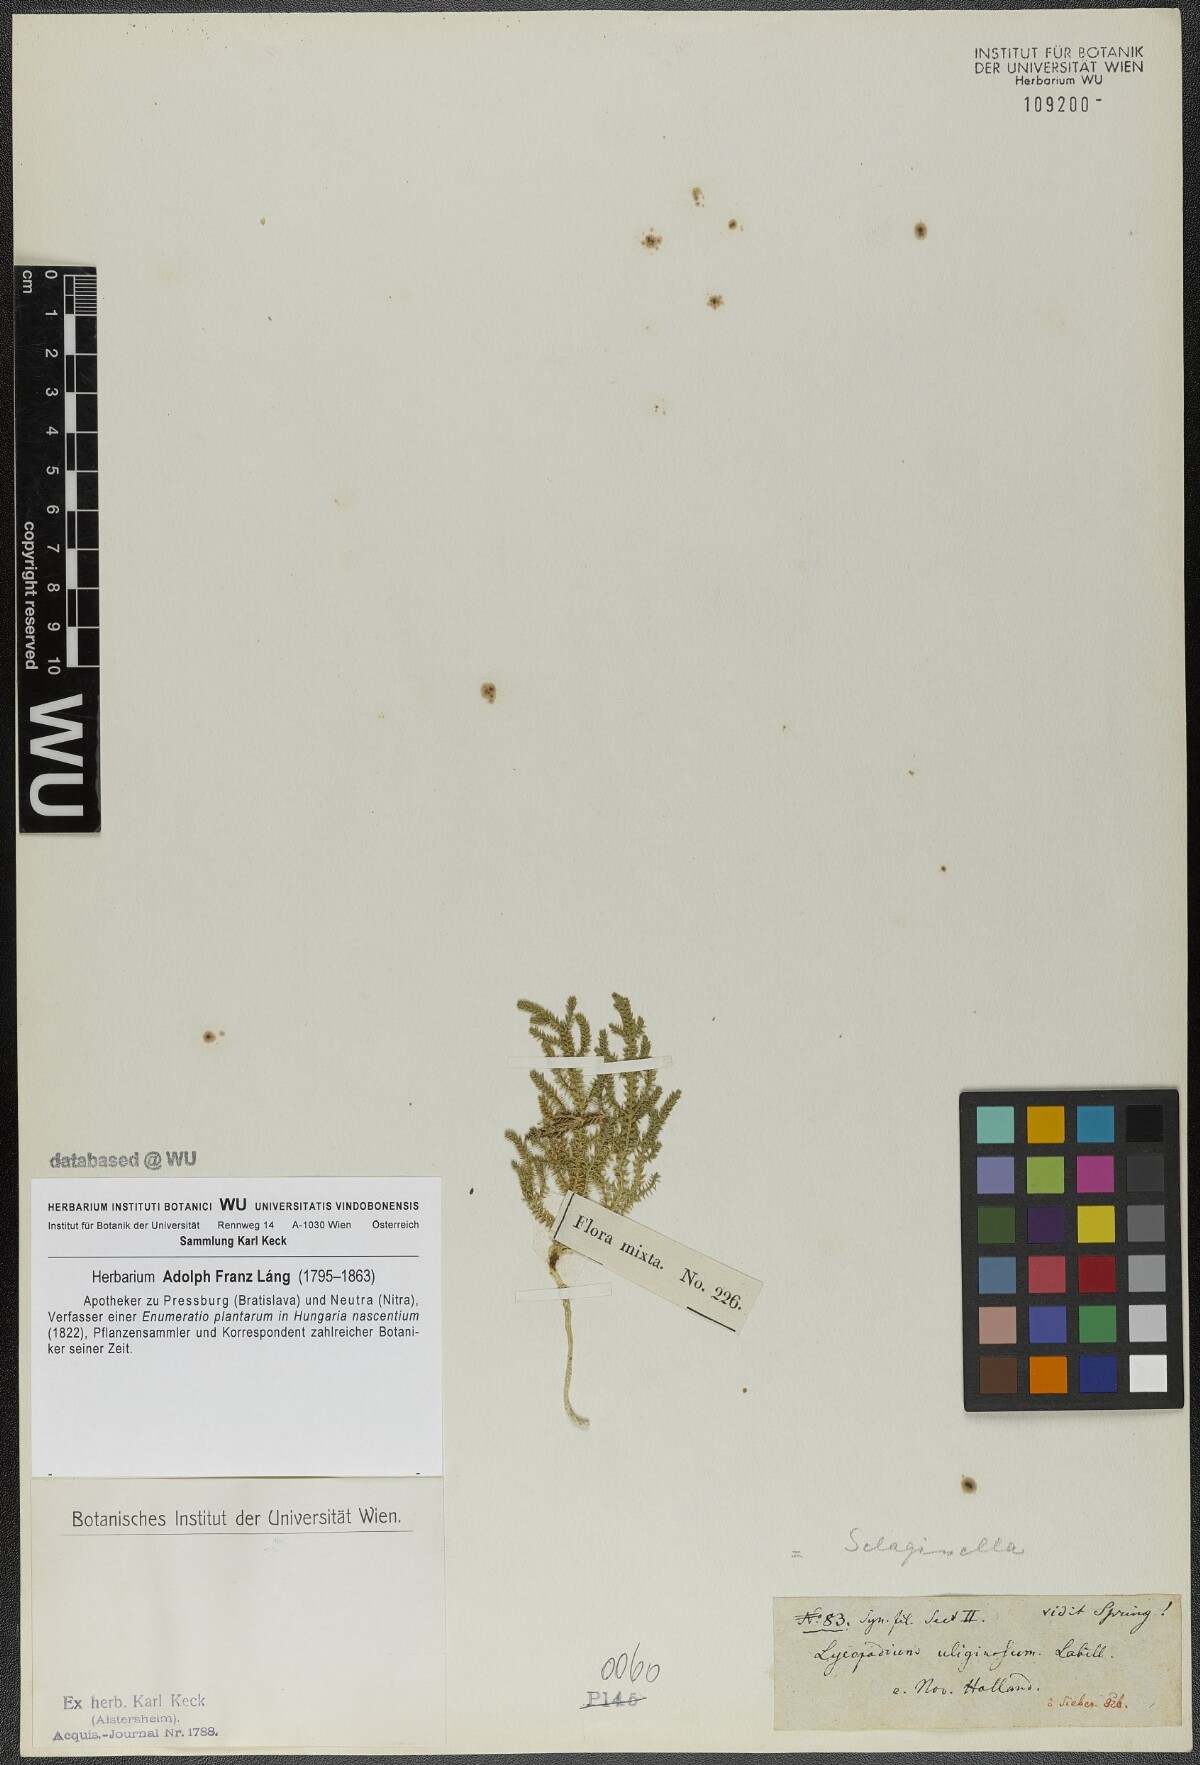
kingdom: Plantae
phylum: Tracheophyta
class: Lycopodiopsida
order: Selaginellales
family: Selaginellaceae
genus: Selaginella
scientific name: Selaginella uliginosa
